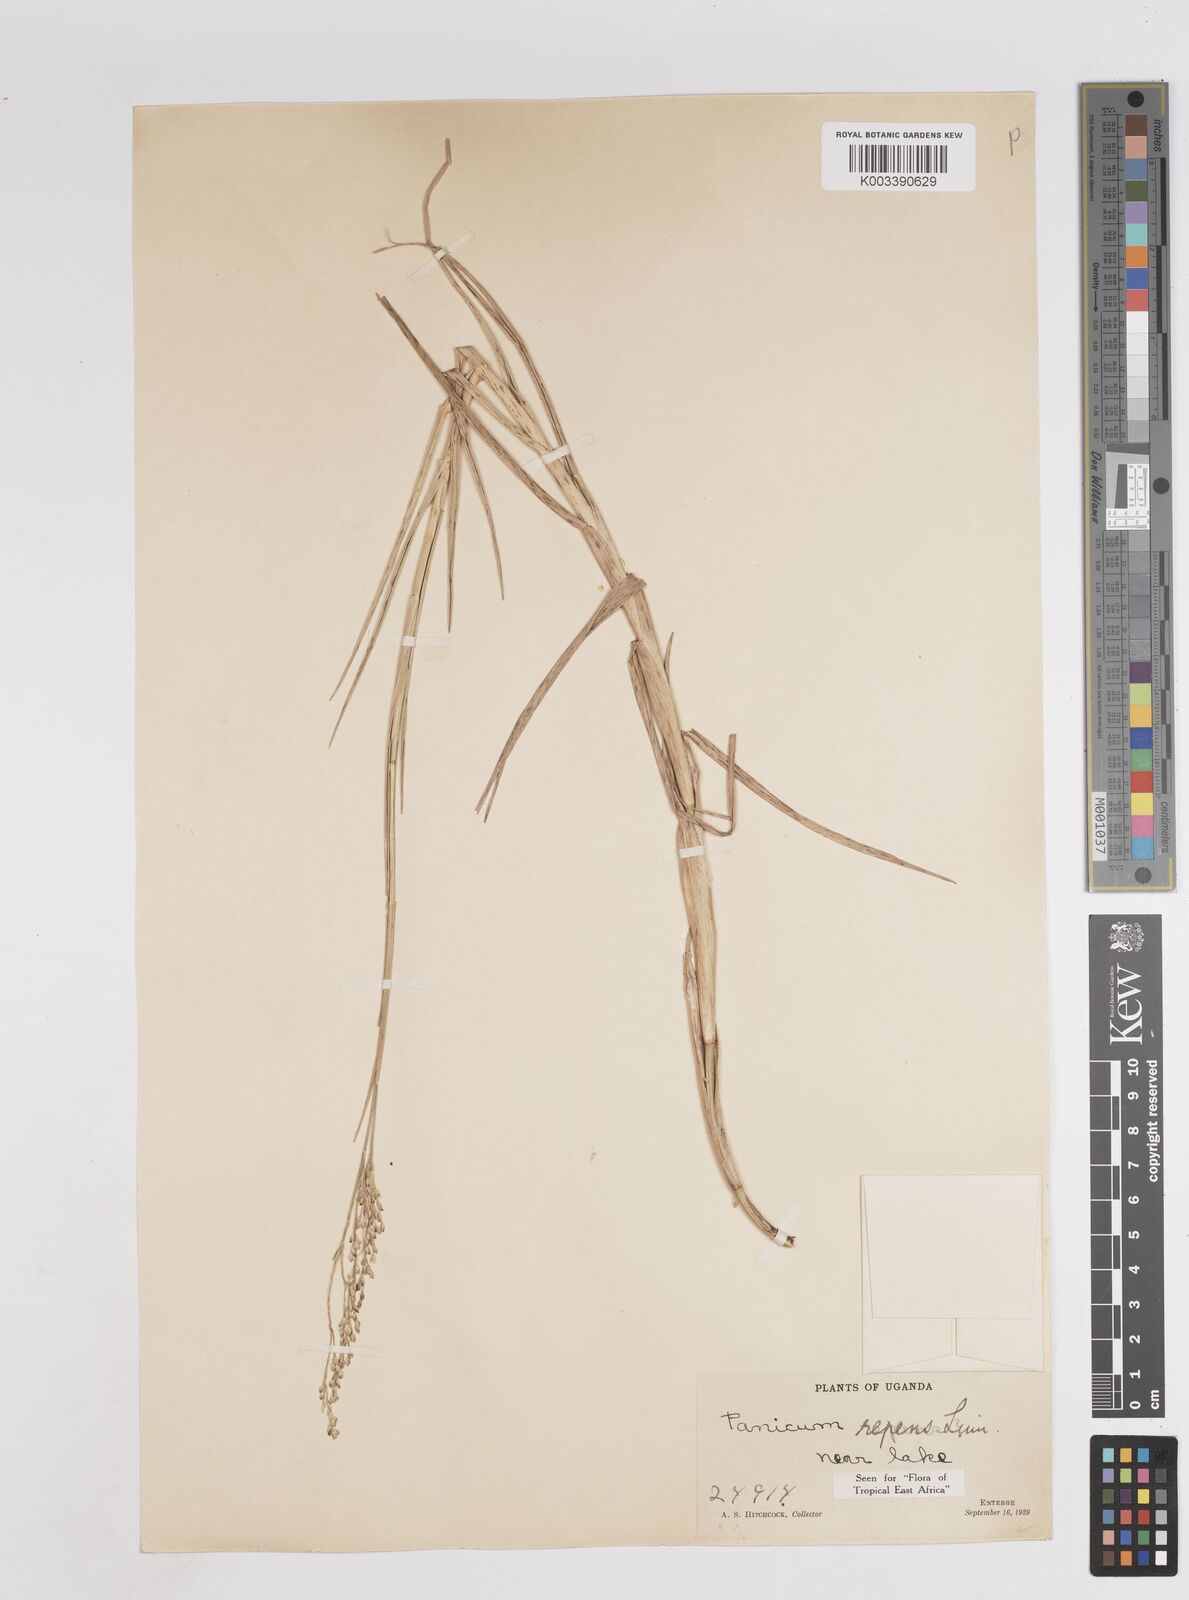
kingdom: Plantae
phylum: Tracheophyta
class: Liliopsida
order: Poales
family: Poaceae
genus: Panicum
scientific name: Panicum repens
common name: Torpedo grass
